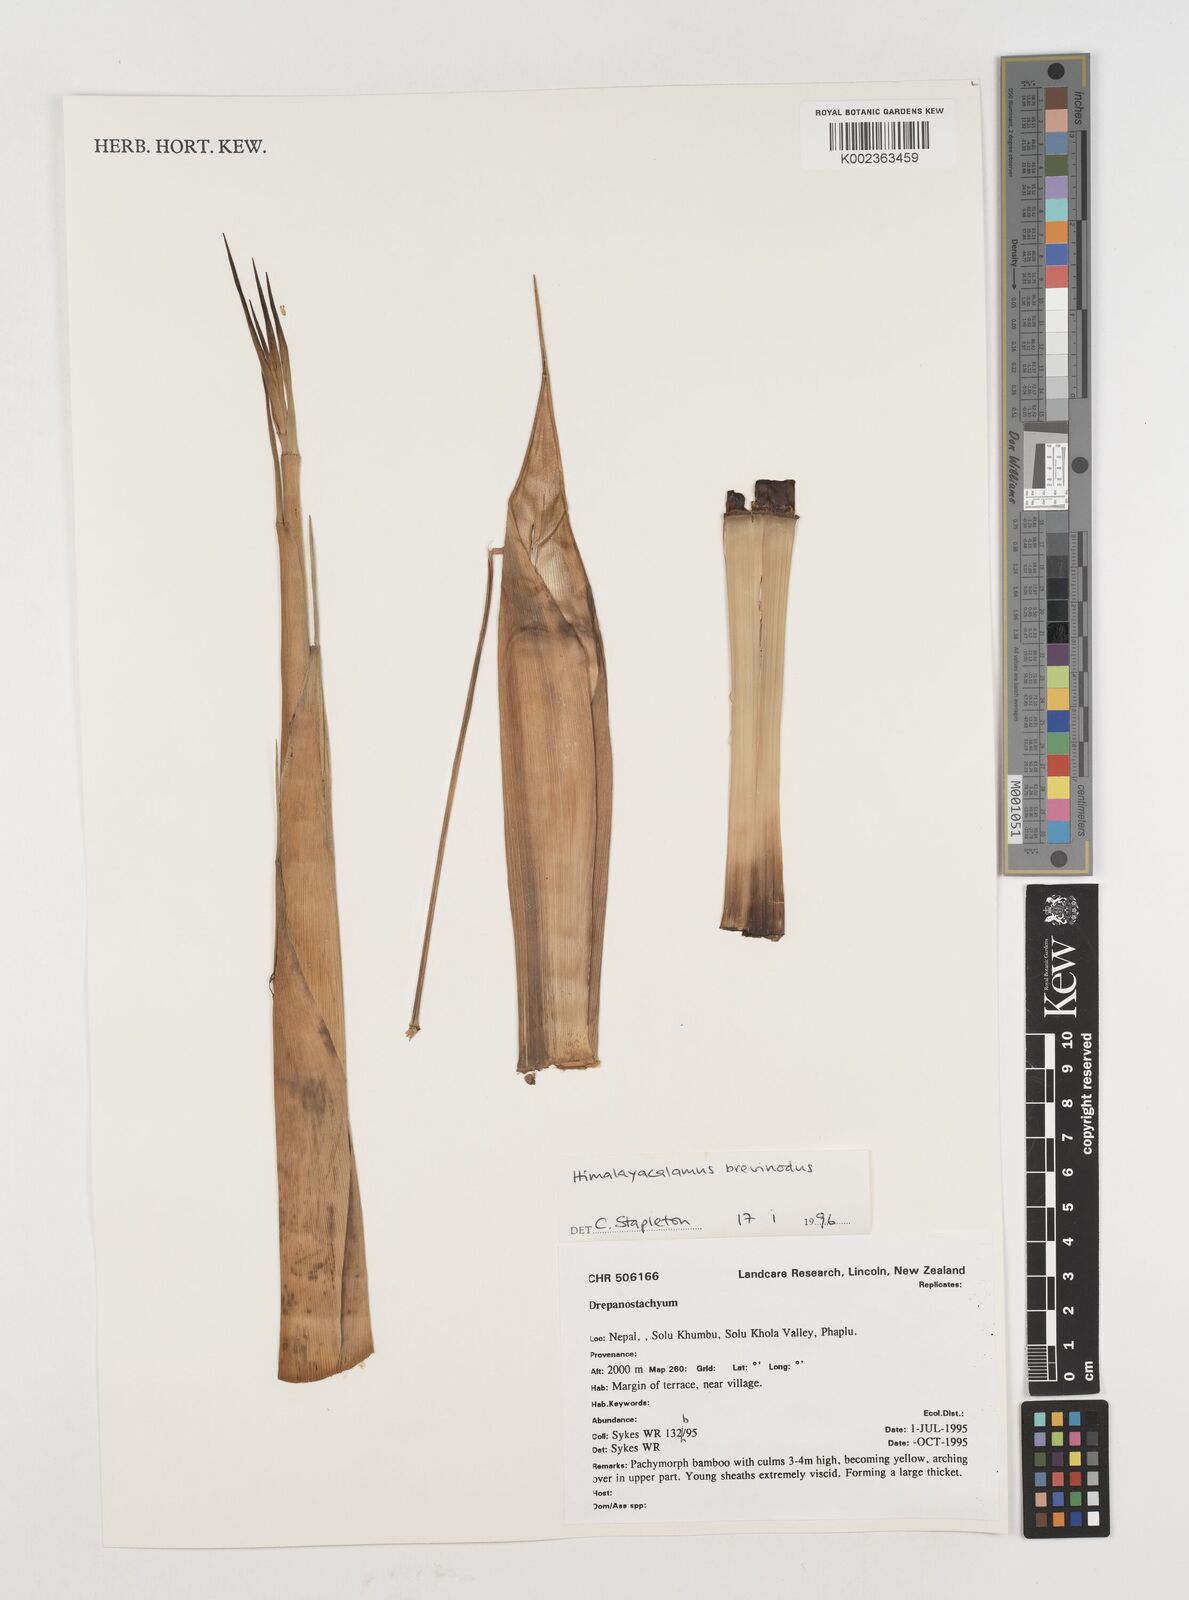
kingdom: Plantae
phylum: Tracheophyta
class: Liliopsida
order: Poales
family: Poaceae
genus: Himalayacalamus
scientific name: Himalayacalamus brevinodus
